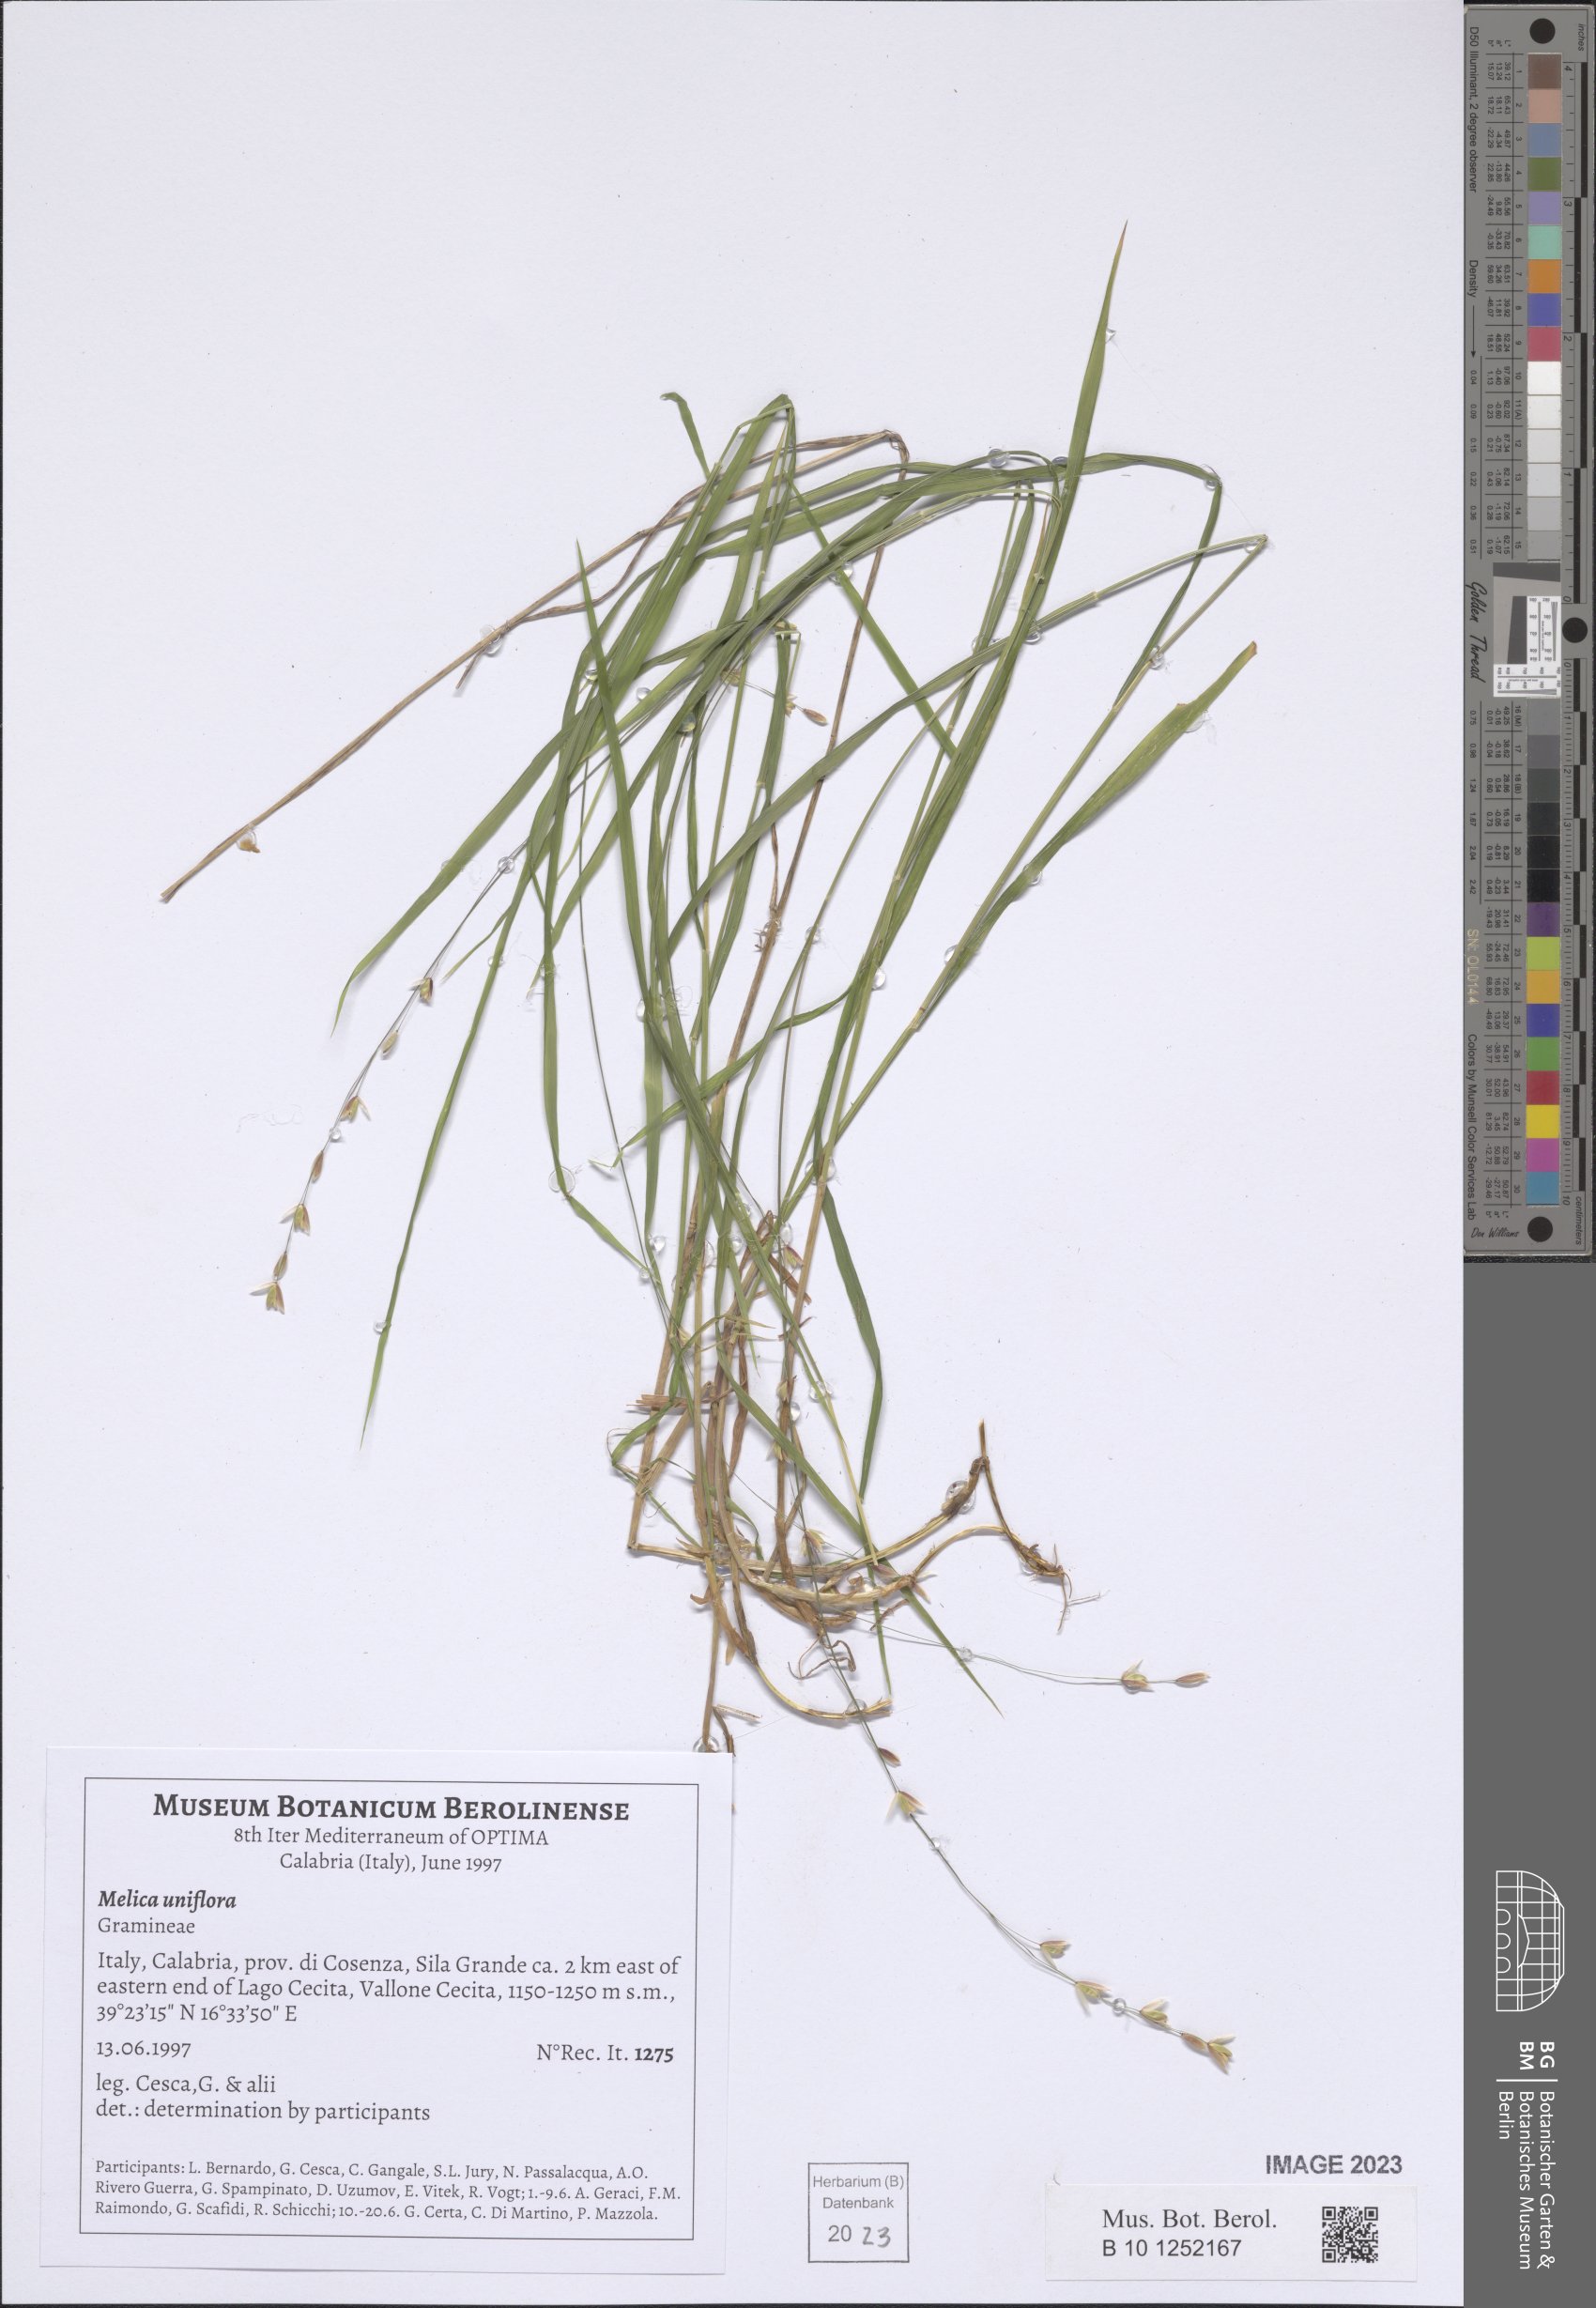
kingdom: Plantae
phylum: Tracheophyta
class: Liliopsida
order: Poales
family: Poaceae
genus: Melica
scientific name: Melica uniflora
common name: Wood melick
